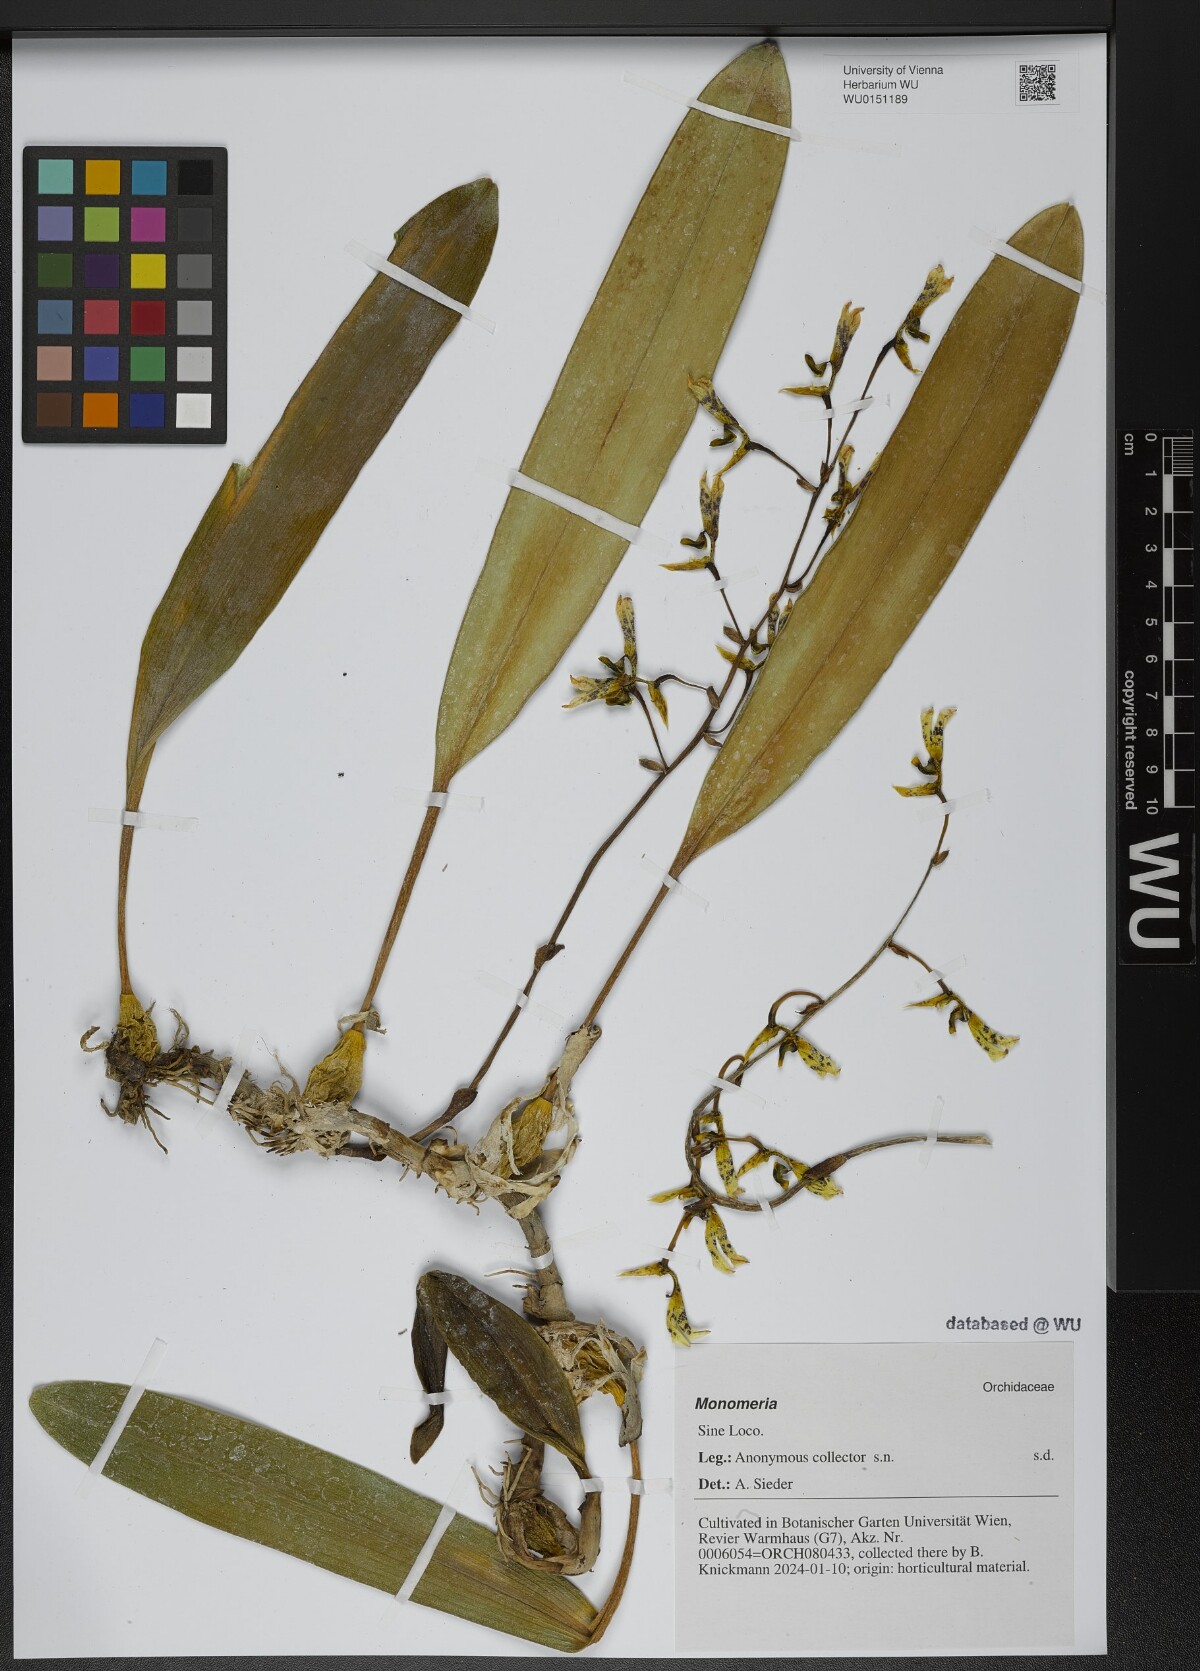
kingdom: Plantae
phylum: Tracheophyta
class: Liliopsida
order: Asparagales
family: Orchidaceae
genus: Bulbophyllum
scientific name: Bulbophyllum
